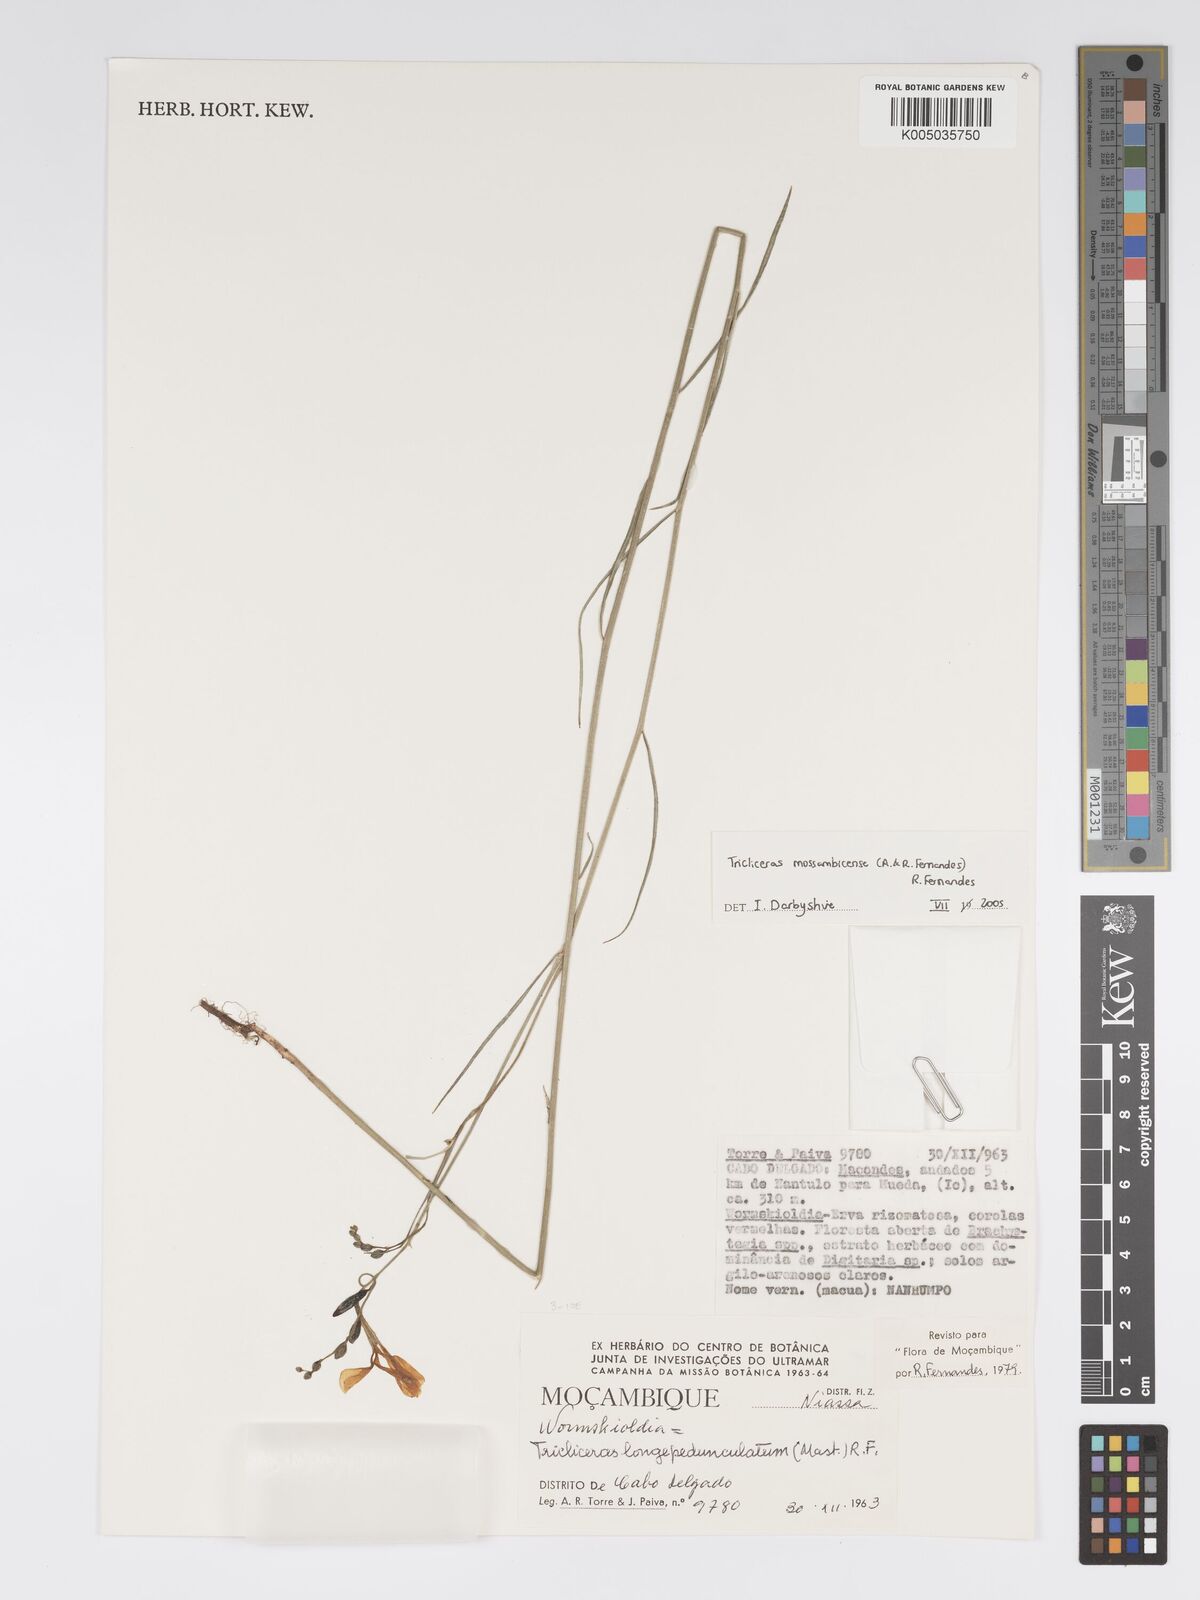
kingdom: Plantae
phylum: Tracheophyta
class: Magnoliopsida
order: Malpighiales
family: Turneraceae
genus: Tricliceras
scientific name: Tricliceras mossambicense
